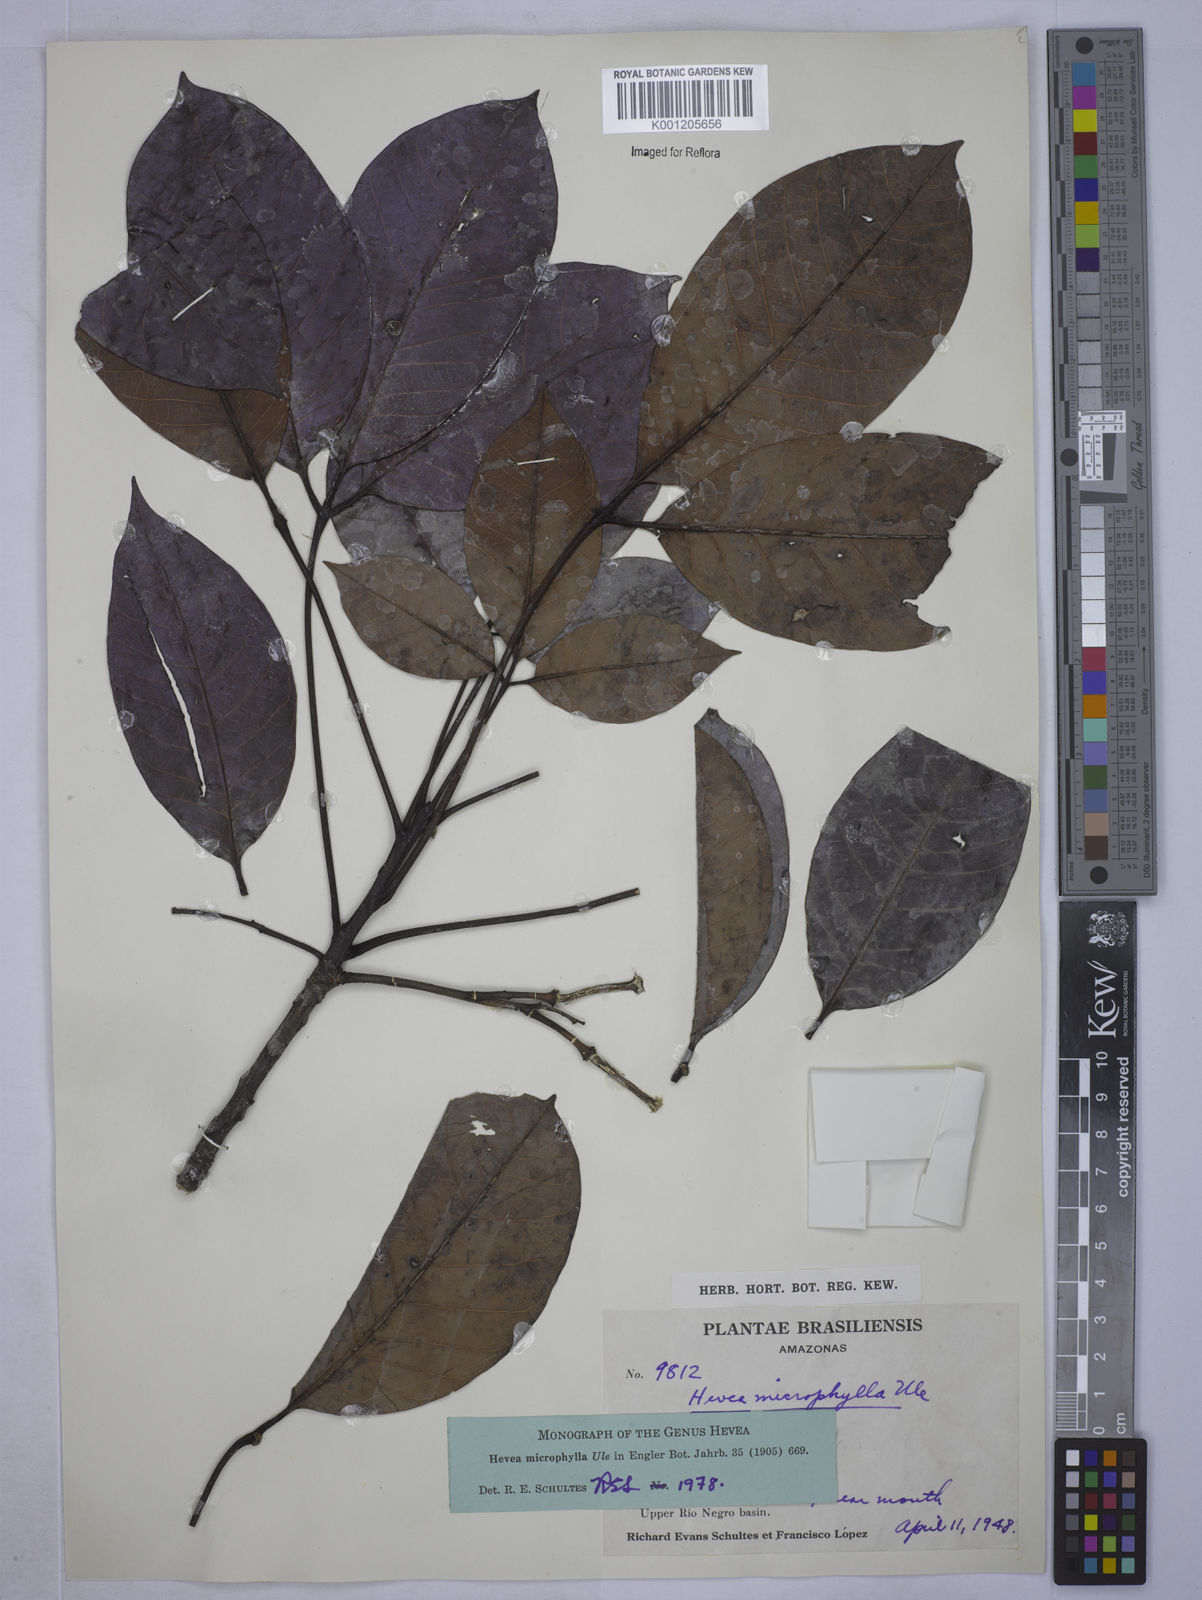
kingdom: Plantae
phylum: Tracheophyta
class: Magnoliopsida
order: Malpighiales
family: Euphorbiaceae
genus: Hevea
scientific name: Hevea microphylla
